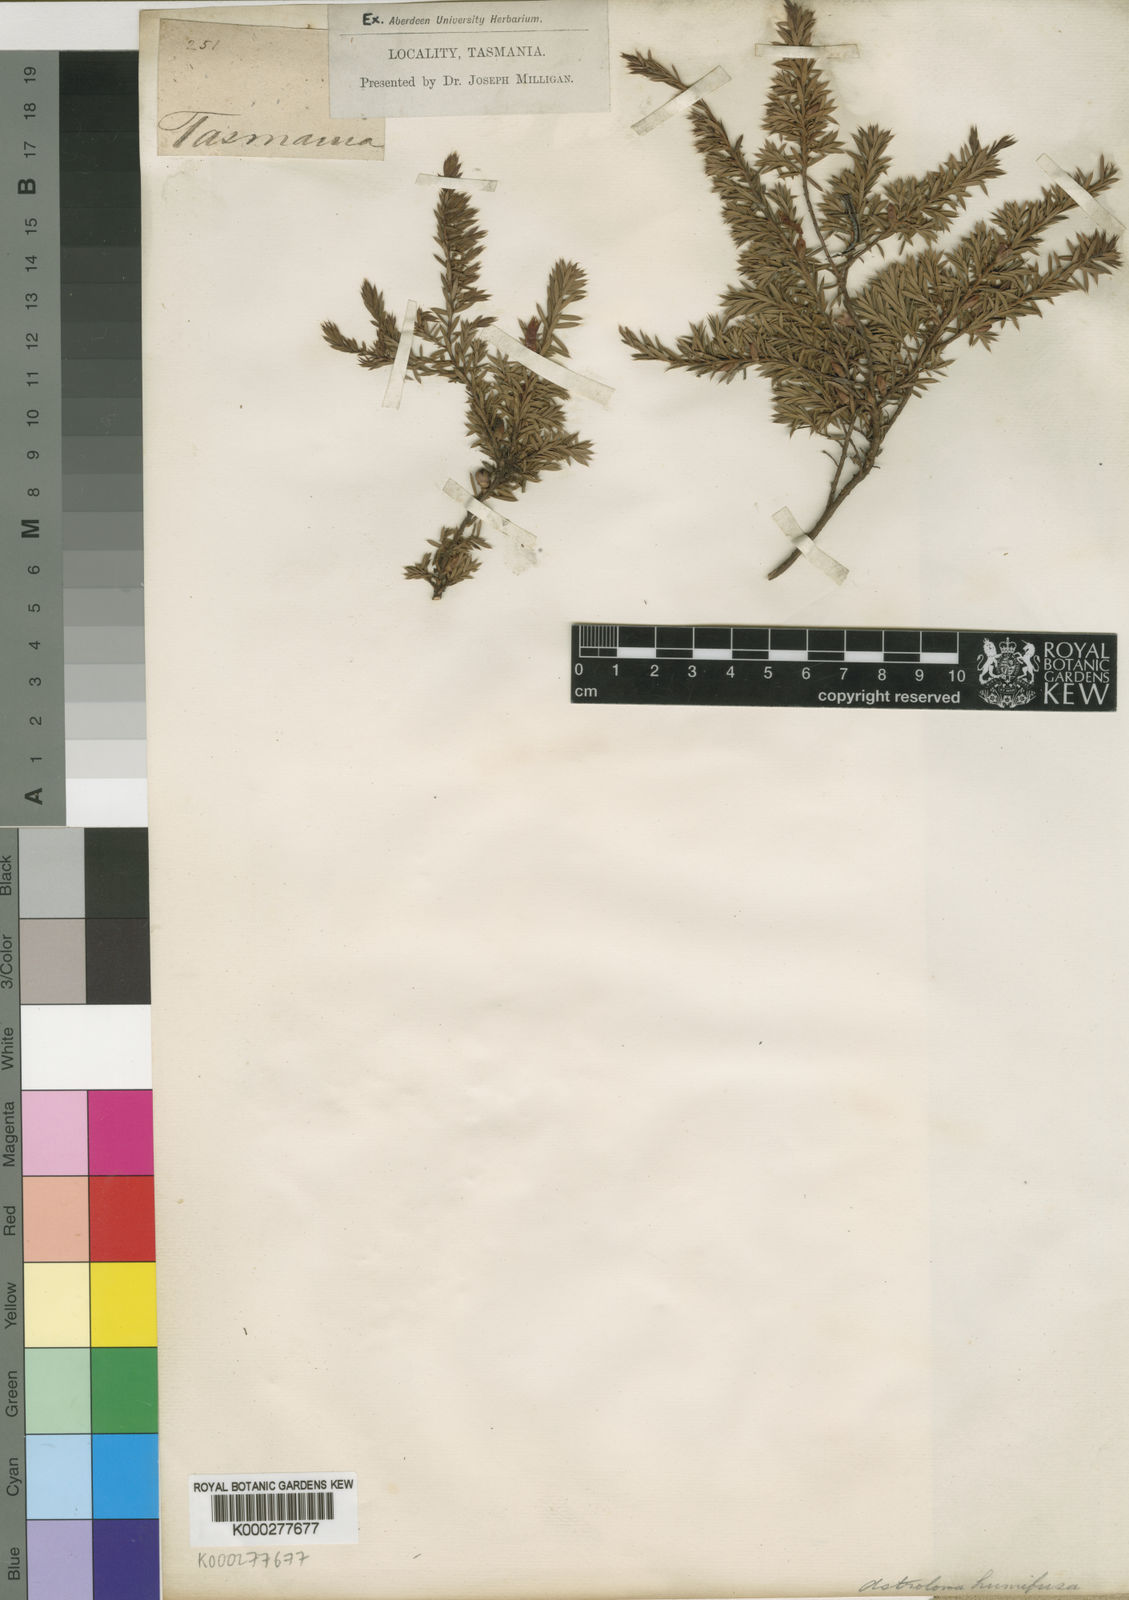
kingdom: Plantae
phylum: Tracheophyta
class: Magnoliopsida
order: Ericales
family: Ericaceae
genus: Styphelia
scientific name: Styphelia humifusa
